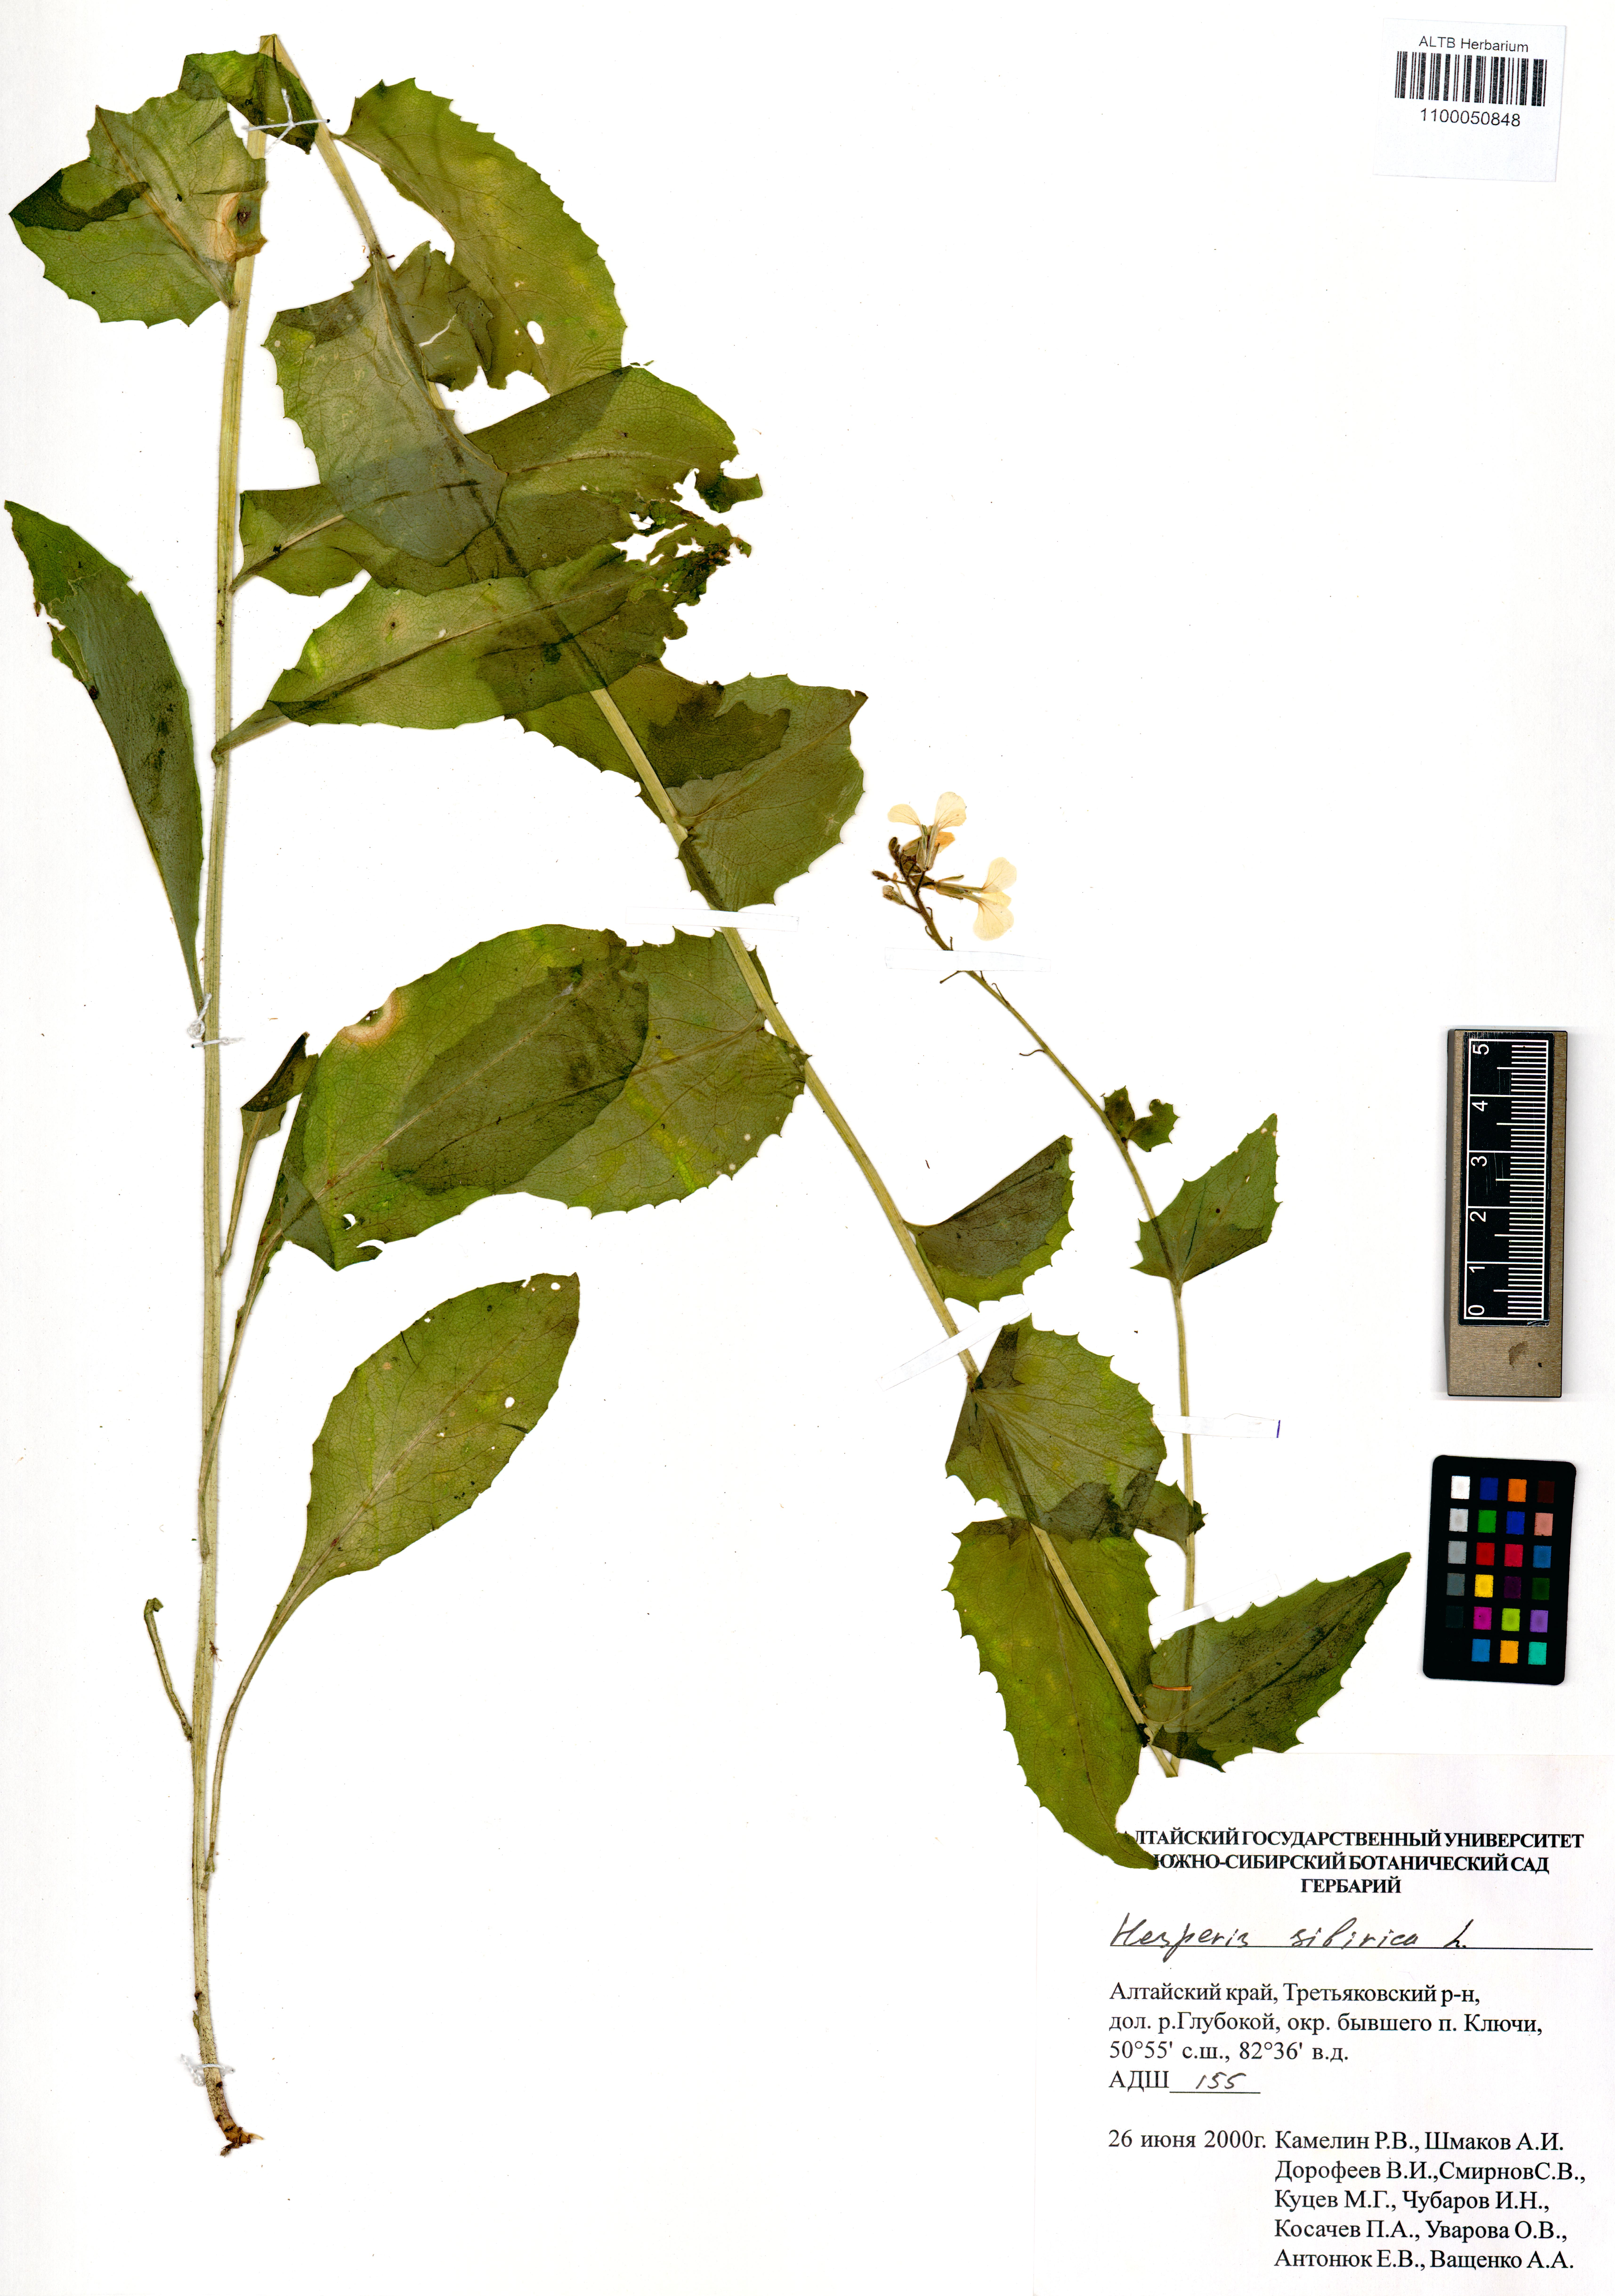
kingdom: Plantae
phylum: Tracheophyta
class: Magnoliopsida
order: Brassicales
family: Brassicaceae
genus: Hesperis
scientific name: Hesperis sibirica
